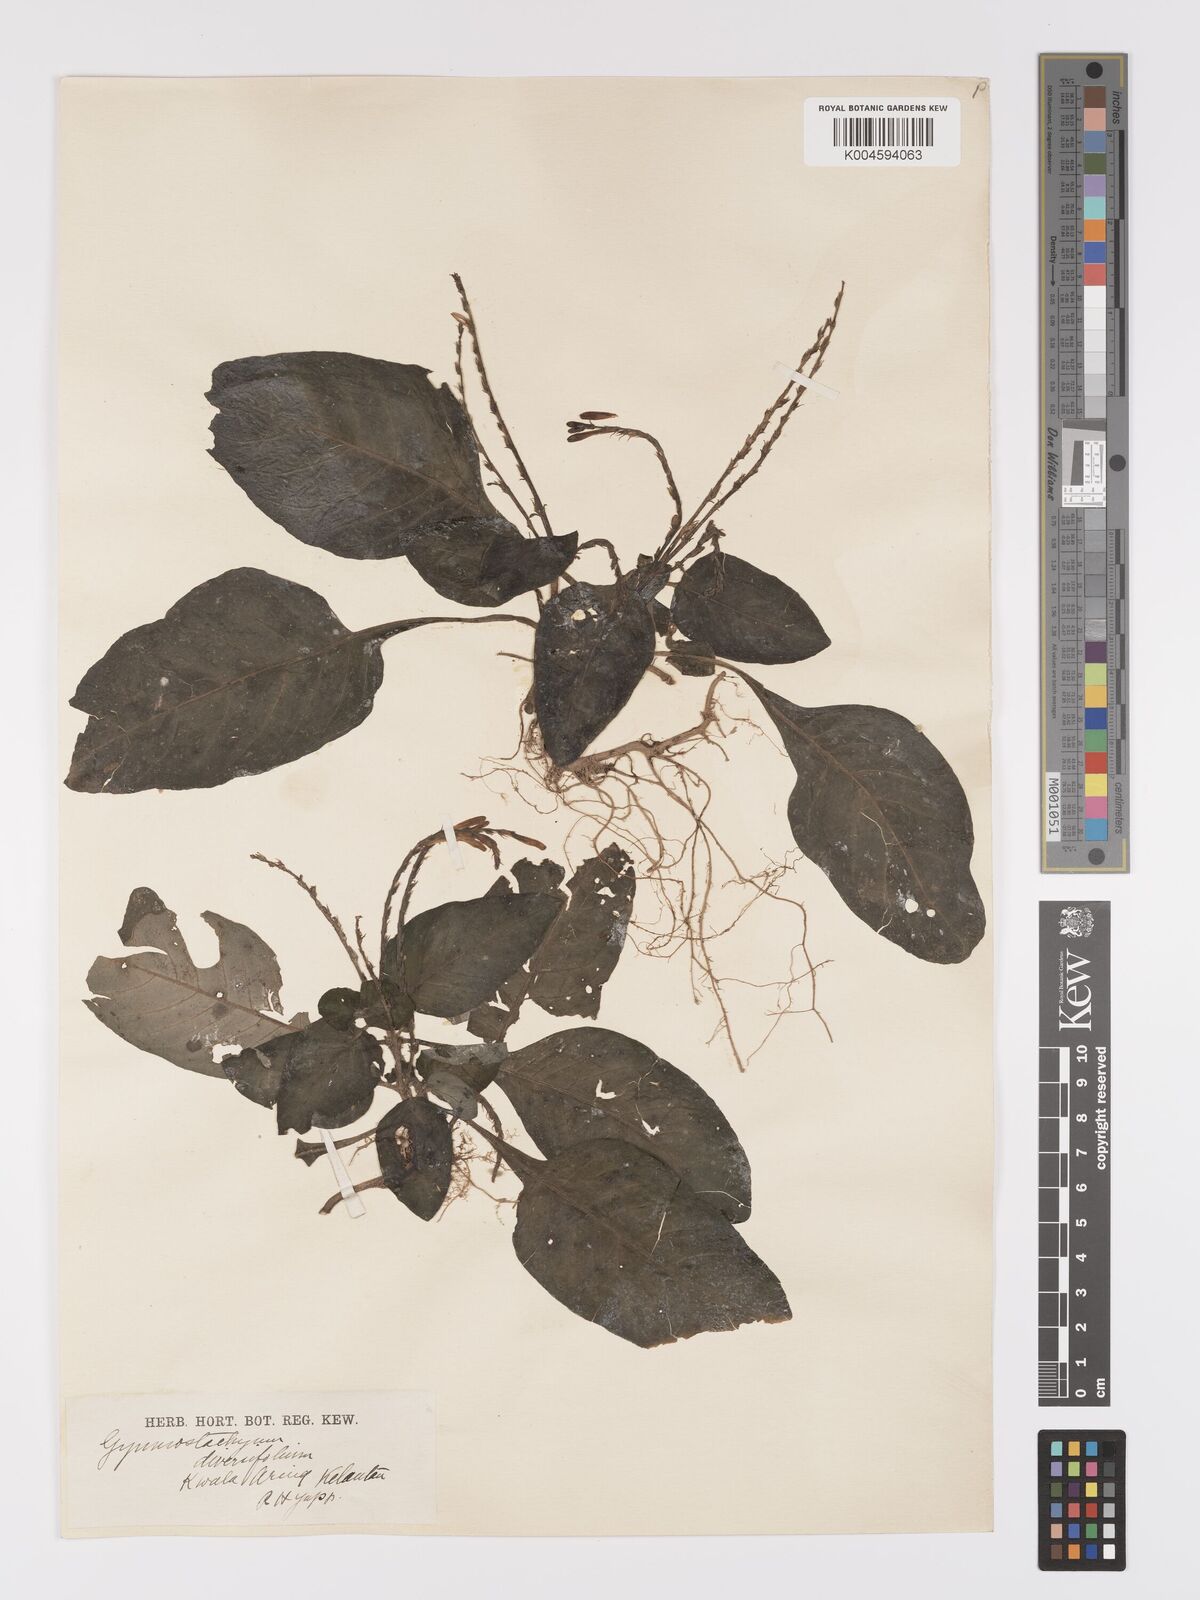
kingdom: Plantae
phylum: Tracheophyta
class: Magnoliopsida
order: Lamiales
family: Acanthaceae
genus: Gymnostachyum
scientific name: Gymnostachyum diversifolium
